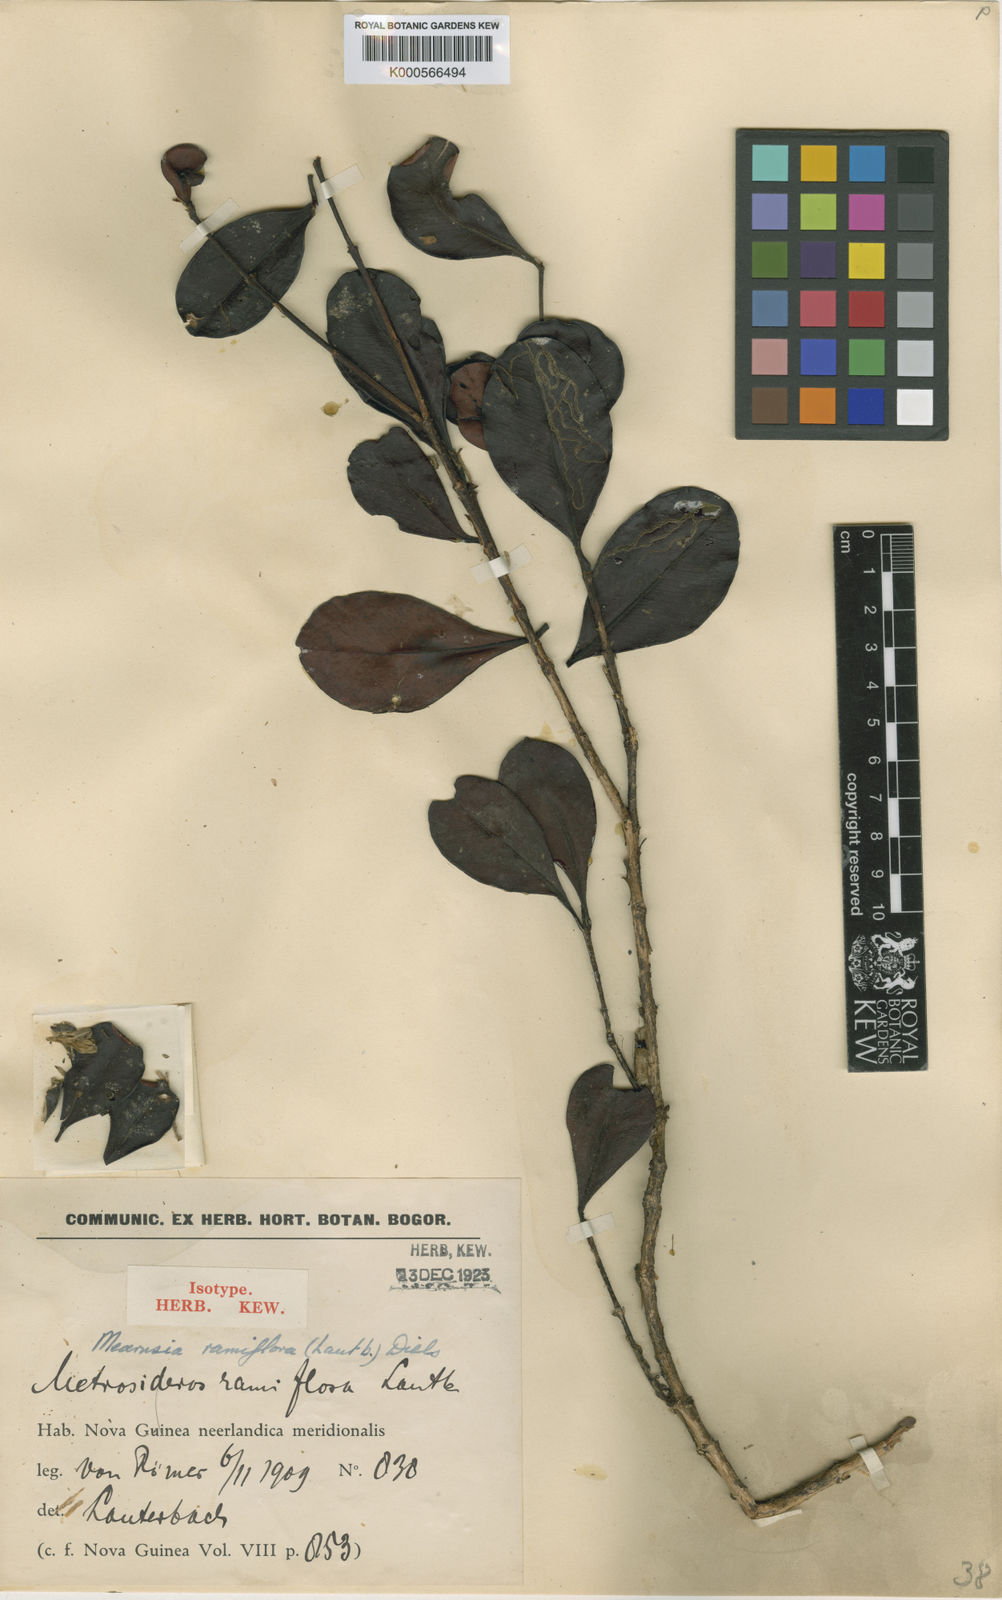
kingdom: Plantae
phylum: Tracheophyta
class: Magnoliopsida
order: Myrtales
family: Myrtaceae
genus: Metrosideros
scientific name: Metrosideros ramiflora
